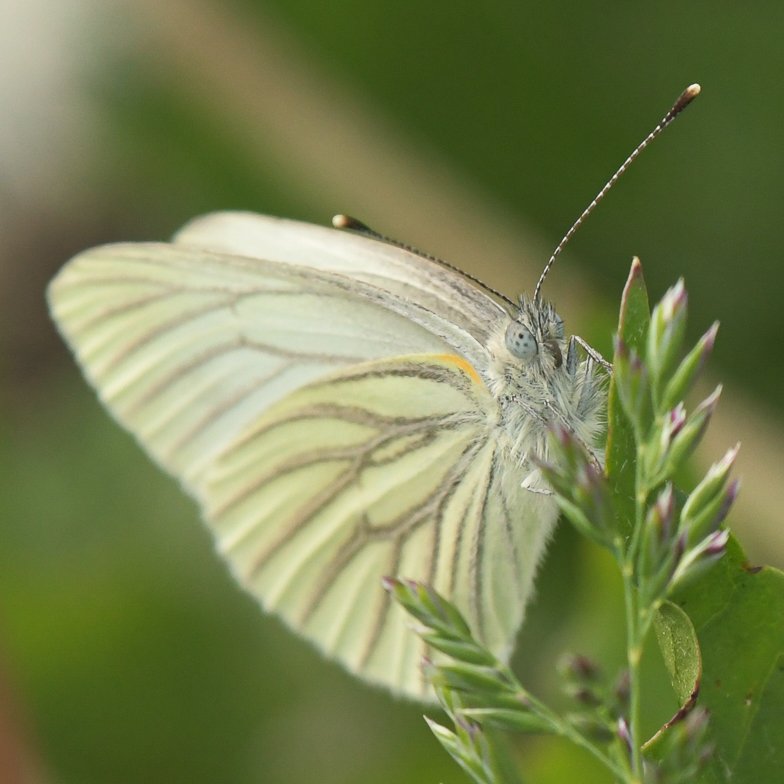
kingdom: Animalia
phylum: Arthropoda
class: Insecta
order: Lepidoptera
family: Pieridae
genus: Pieris
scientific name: Pieris marginalis
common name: Margined White
